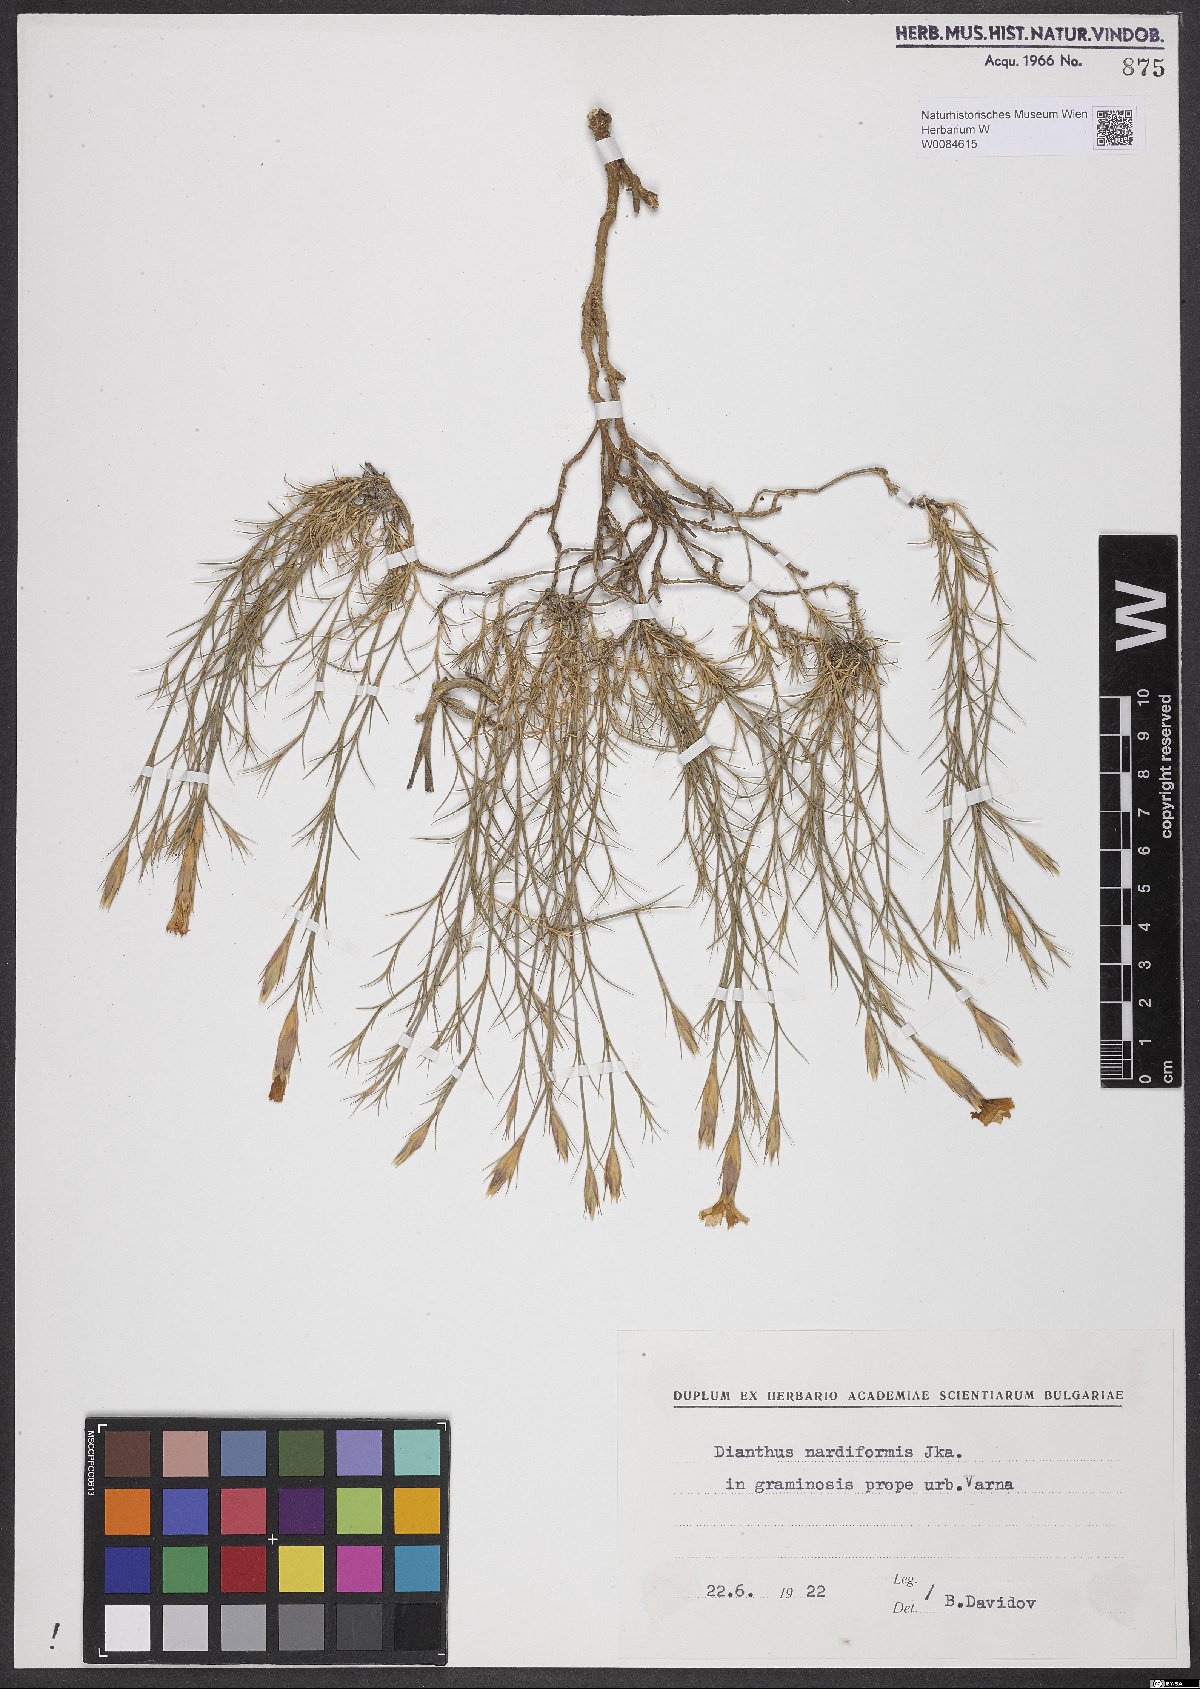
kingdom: Plantae
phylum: Tracheophyta
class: Magnoliopsida
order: Caryophyllales
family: Caryophyllaceae
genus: Dianthus
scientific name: Dianthus nardiformis
